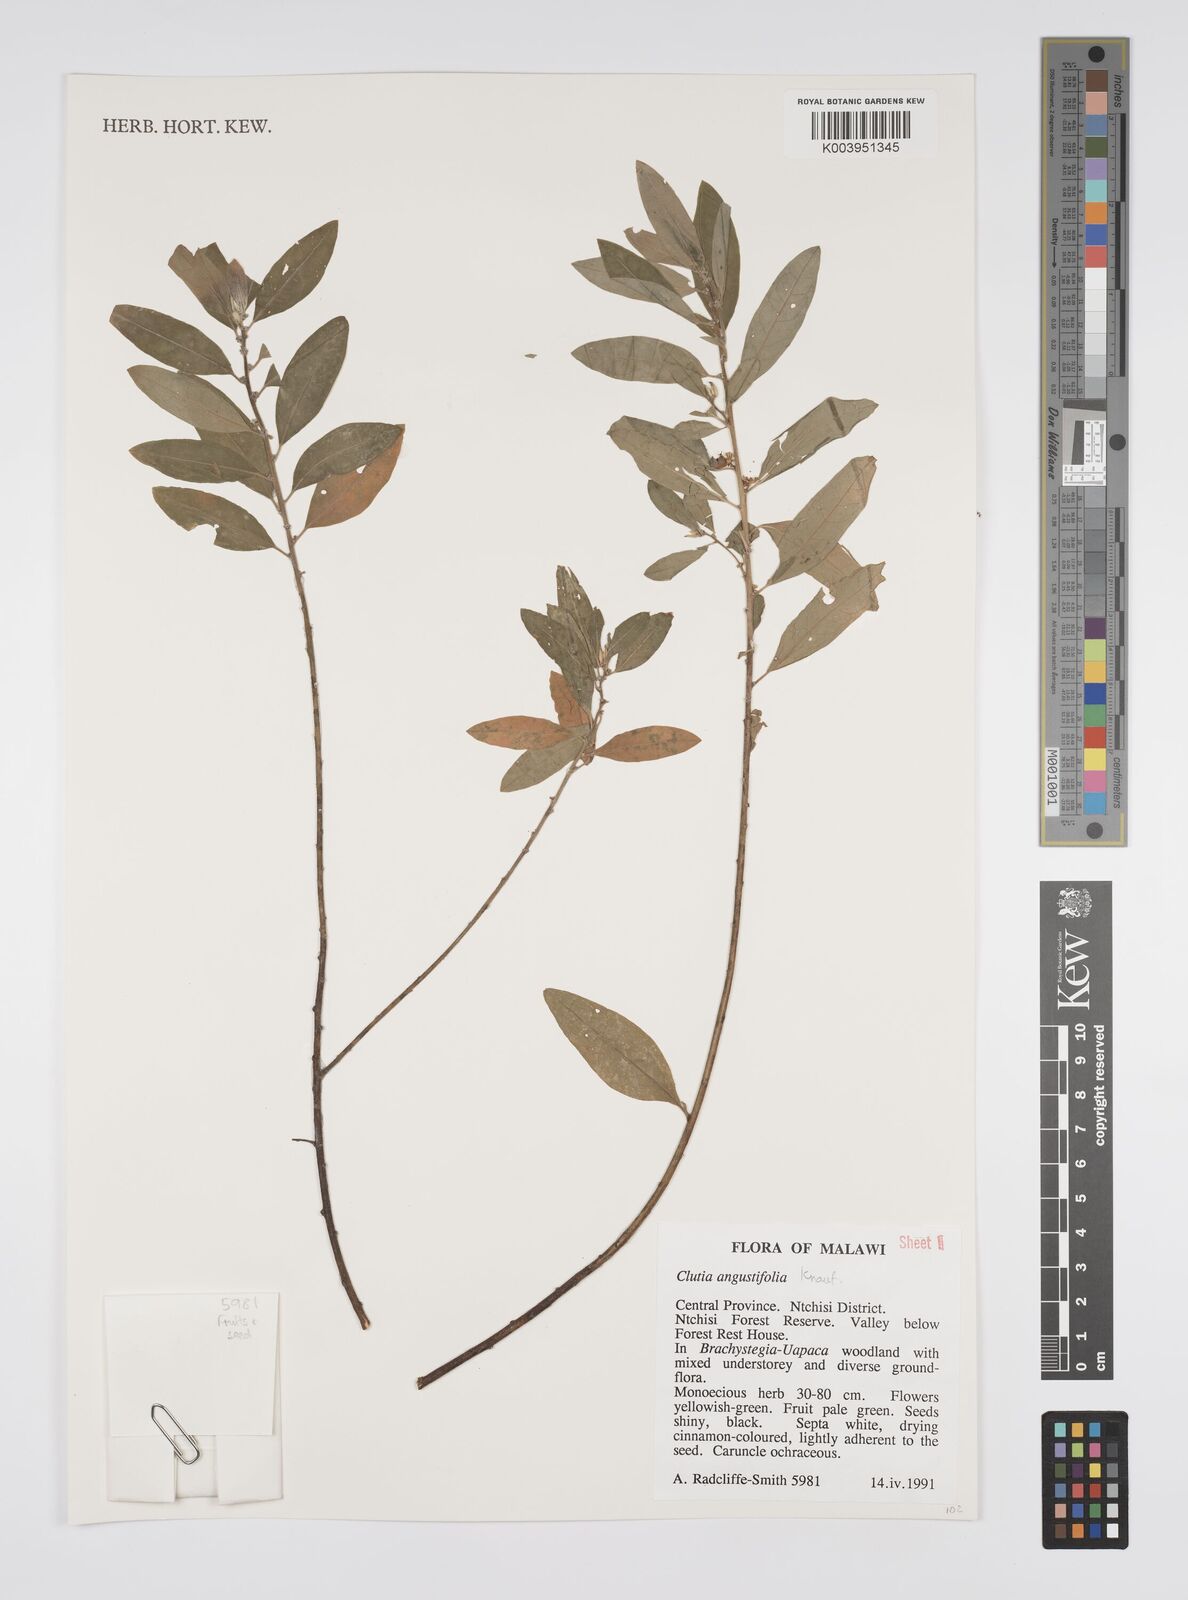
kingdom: Plantae
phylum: Tracheophyta
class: Magnoliopsida
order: Malpighiales
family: Peraceae
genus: Clutia
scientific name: Clutia angustifolia
